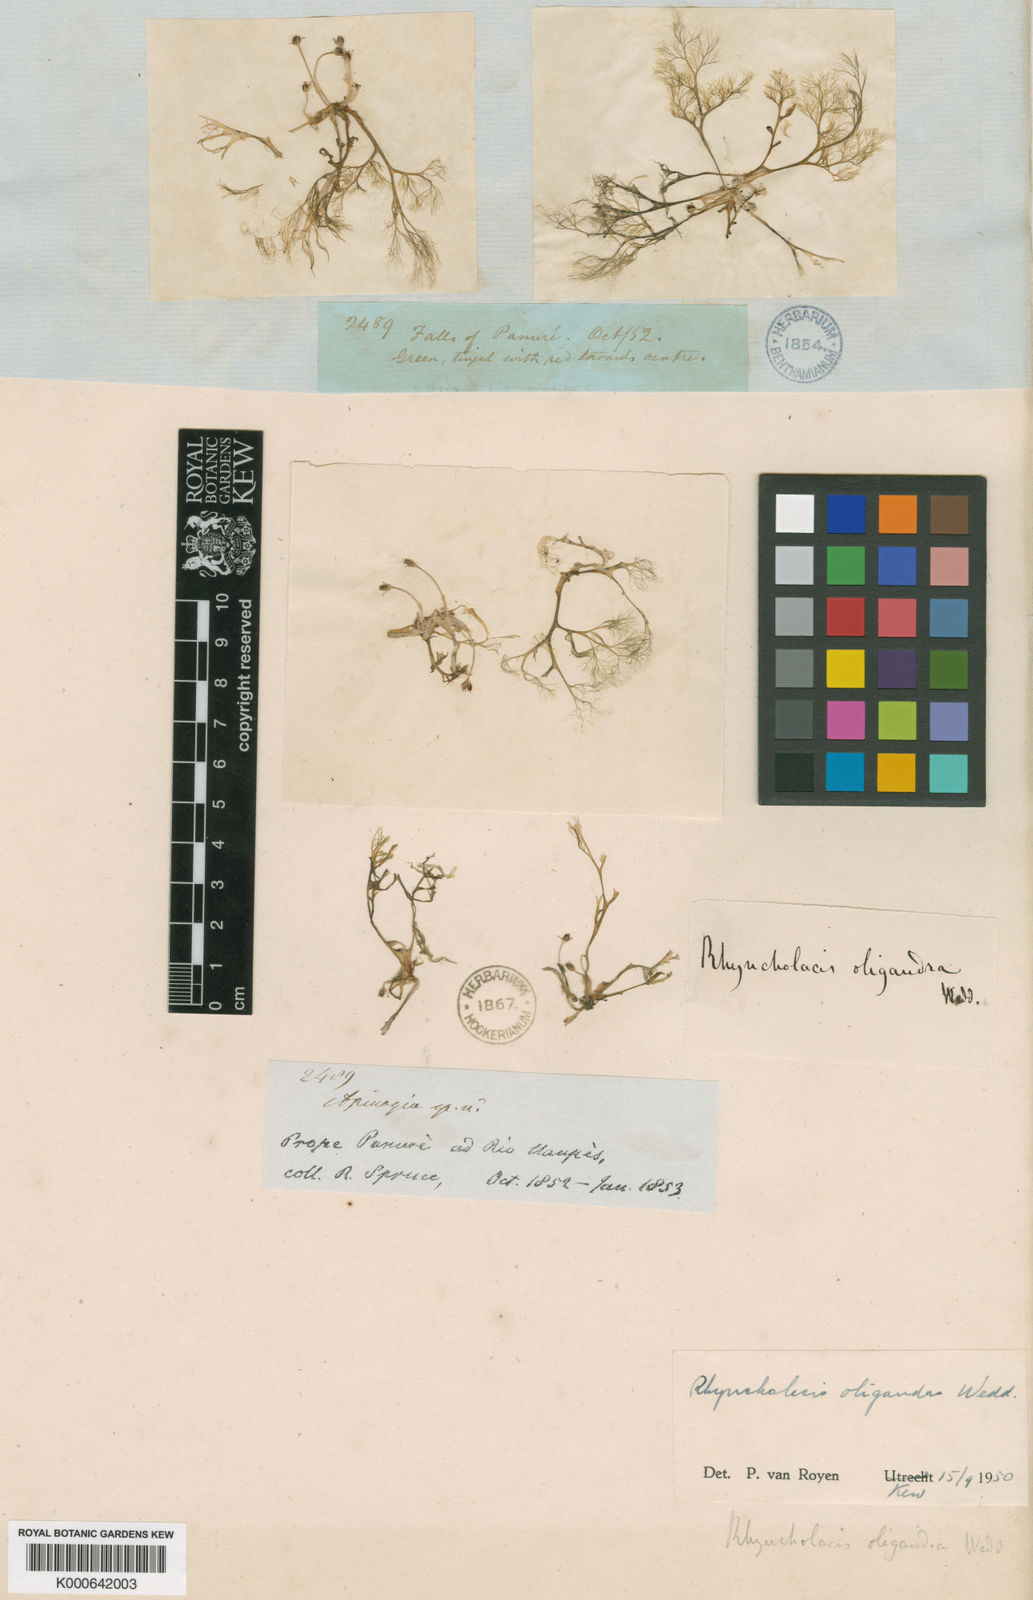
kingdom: Plantae
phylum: Tracheophyta
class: Magnoliopsida
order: Malpighiales
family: Podostemaceae
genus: Rhyncholacis
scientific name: Rhyncholacis oligandra
